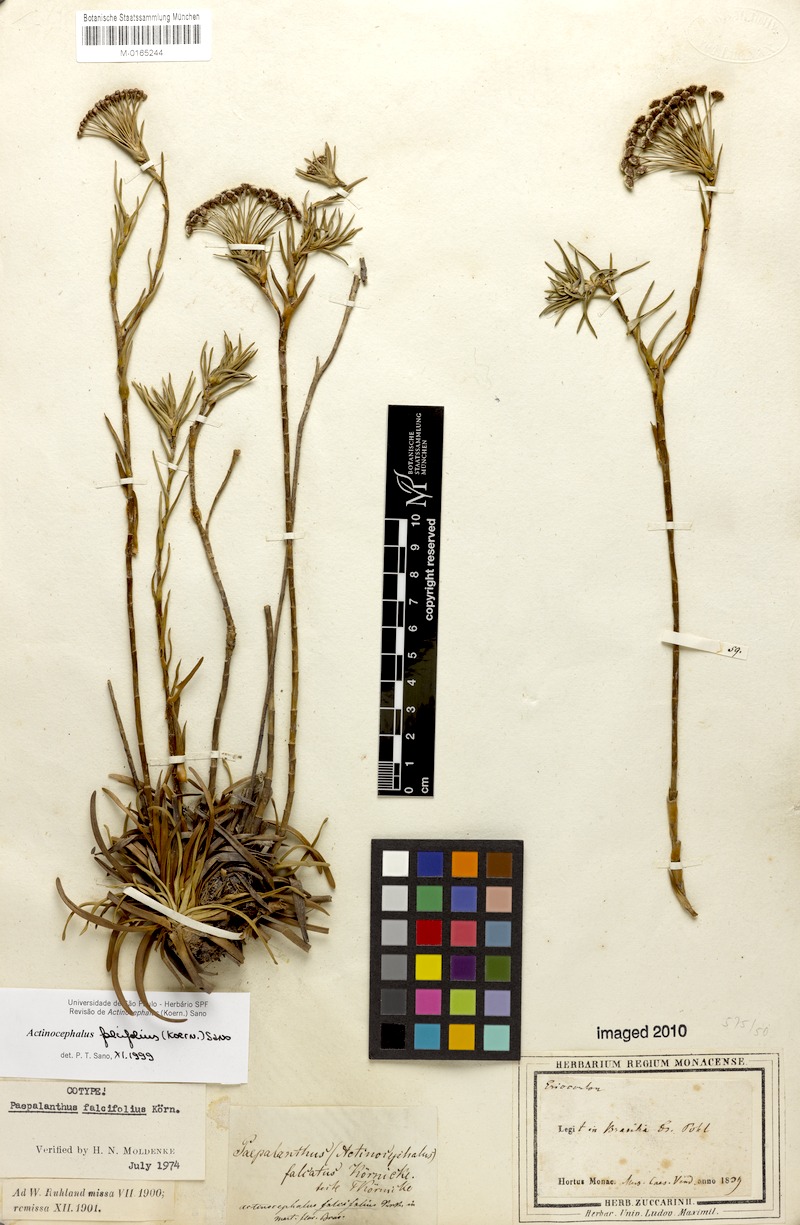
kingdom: Plantae
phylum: Tracheophyta
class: Liliopsida
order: Poales
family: Eriocaulaceae
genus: Paepalanthus
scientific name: Paepalanthus falcifolius
